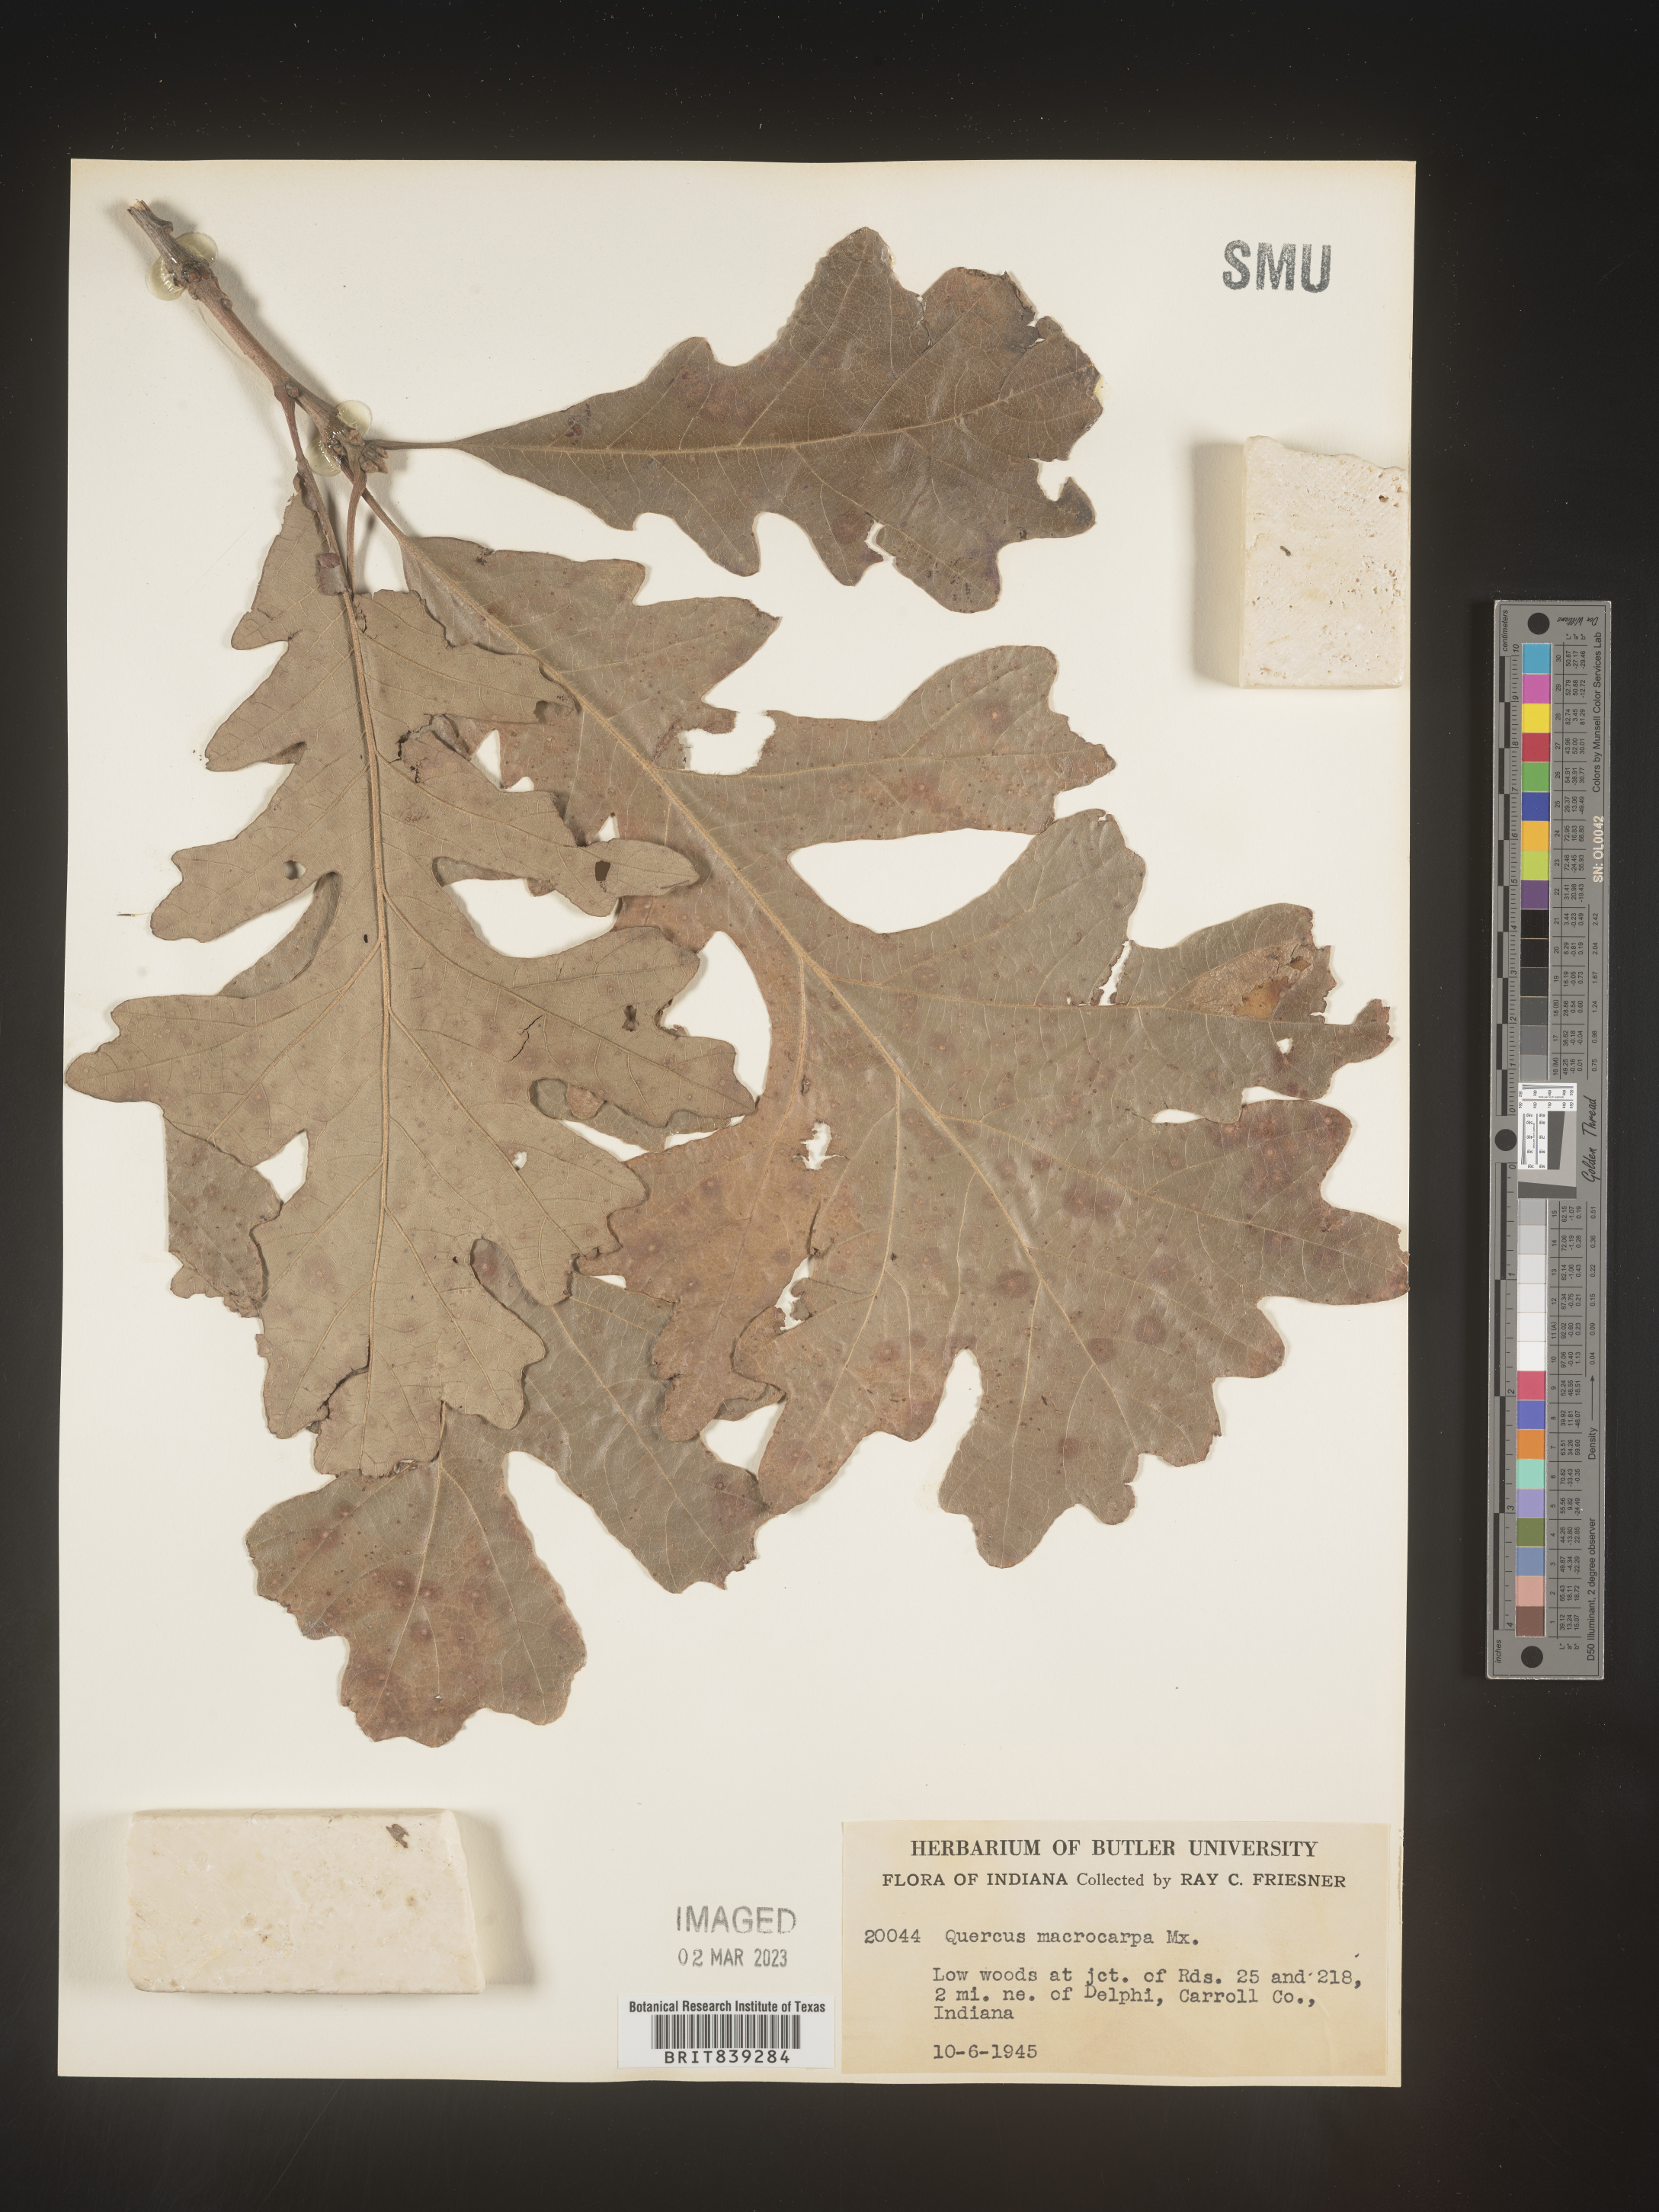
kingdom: Plantae
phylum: Tracheophyta
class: Magnoliopsida
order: Fagales
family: Fagaceae
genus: Quercus
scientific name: Quercus macrocarpa
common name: Bur oak
